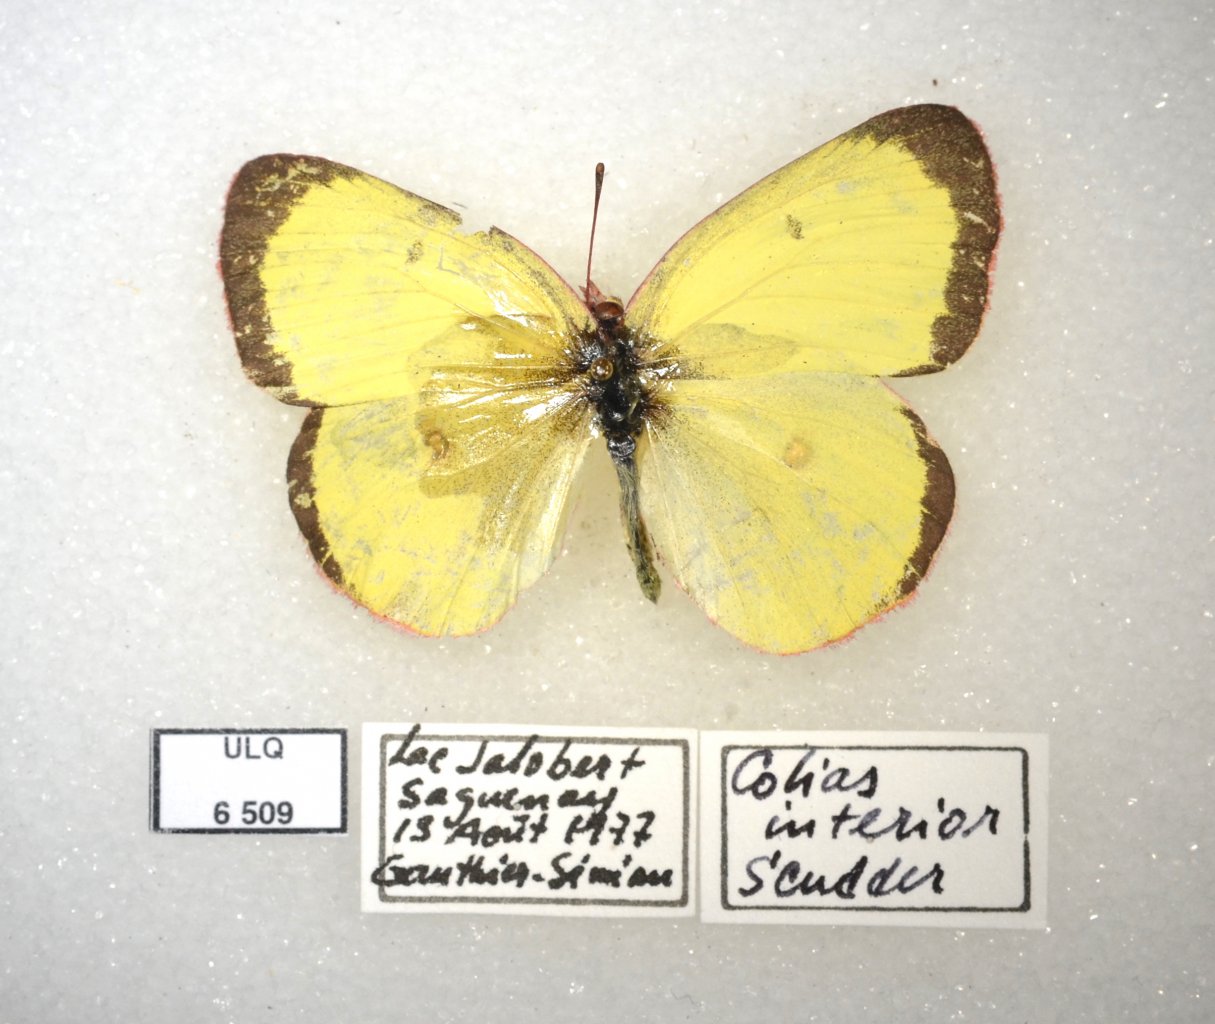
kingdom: Animalia
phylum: Arthropoda
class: Insecta
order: Lepidoptera
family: Pieridae
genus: Colias
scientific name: Colias interior
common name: Pink-edged Sulphur
